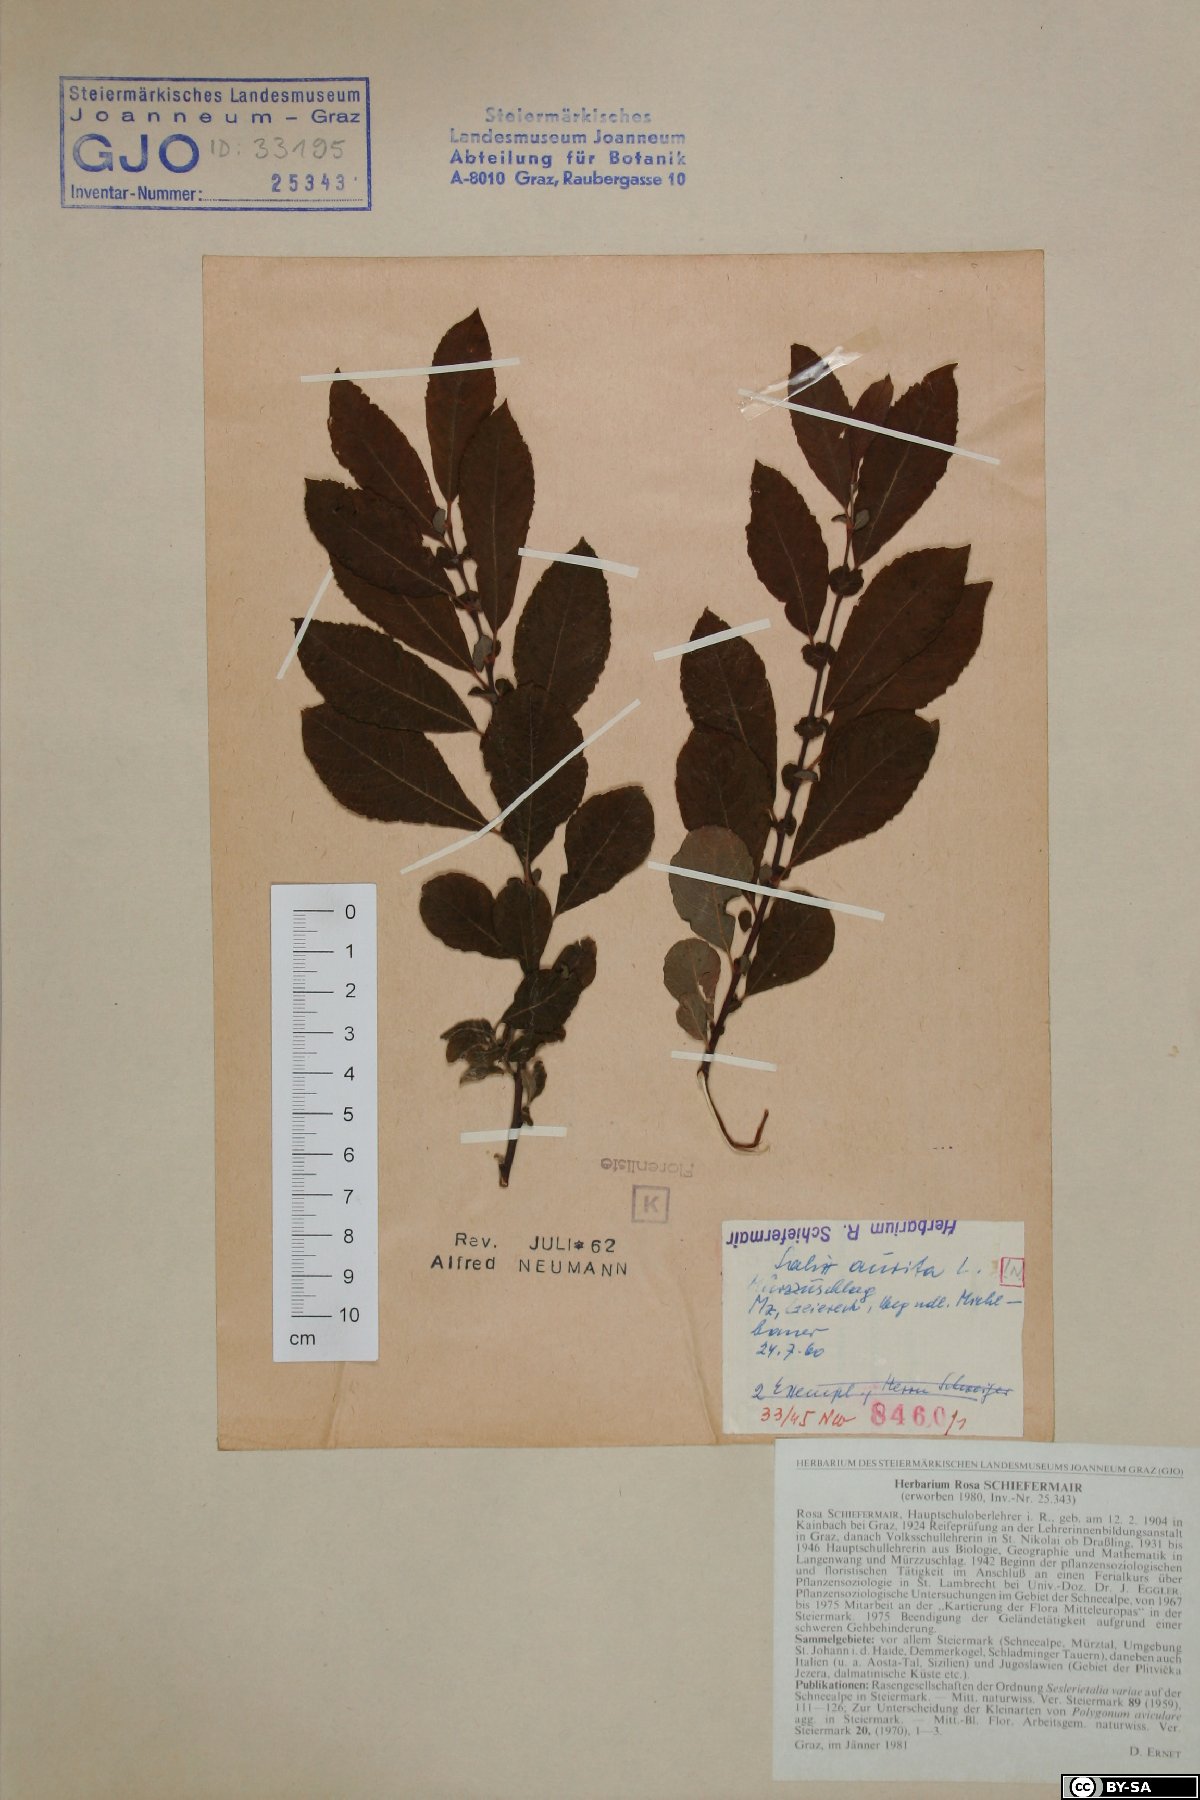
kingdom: Plantae
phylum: Tracheophyta
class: Magnoliopsida
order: Malpighiales
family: Salicaceae
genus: Salix
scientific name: Salix aurita
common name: Eared willow
